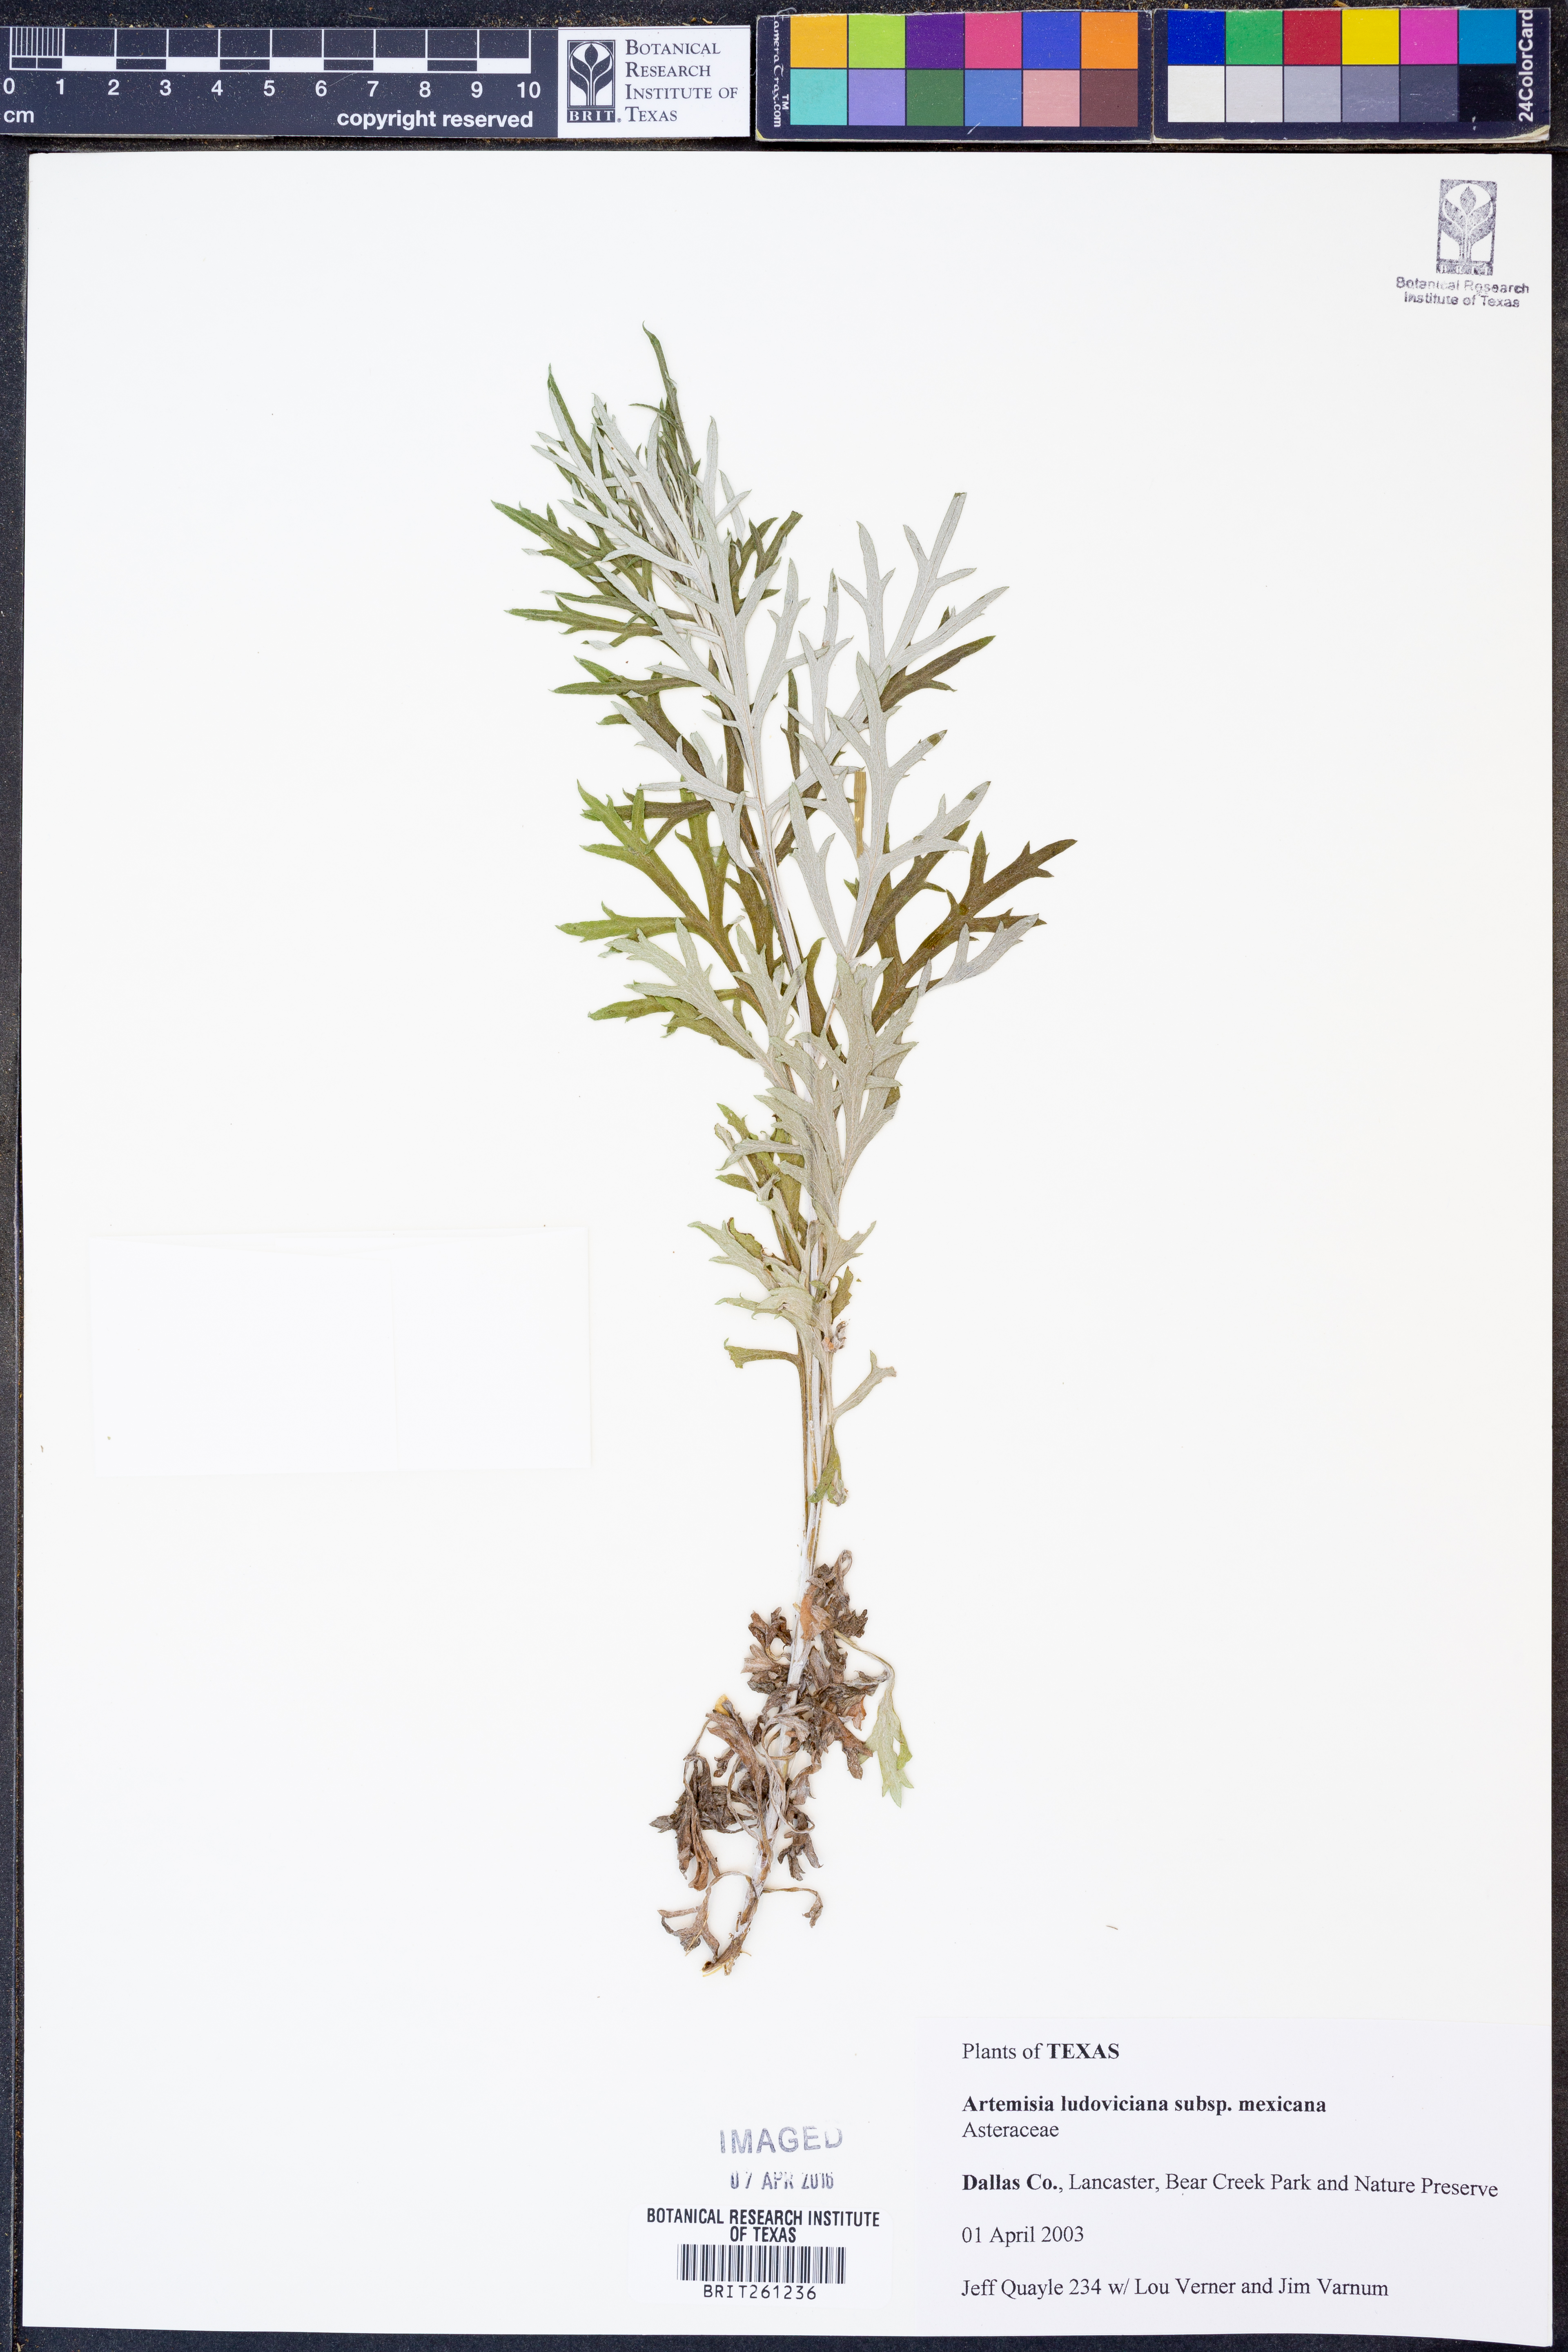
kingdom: Plantae
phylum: Tracheophyta
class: Magnoliopsida
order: Asterales
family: Asteraceae
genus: Artemisia
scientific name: Artemisia ludoviciana
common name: Western mugwort
